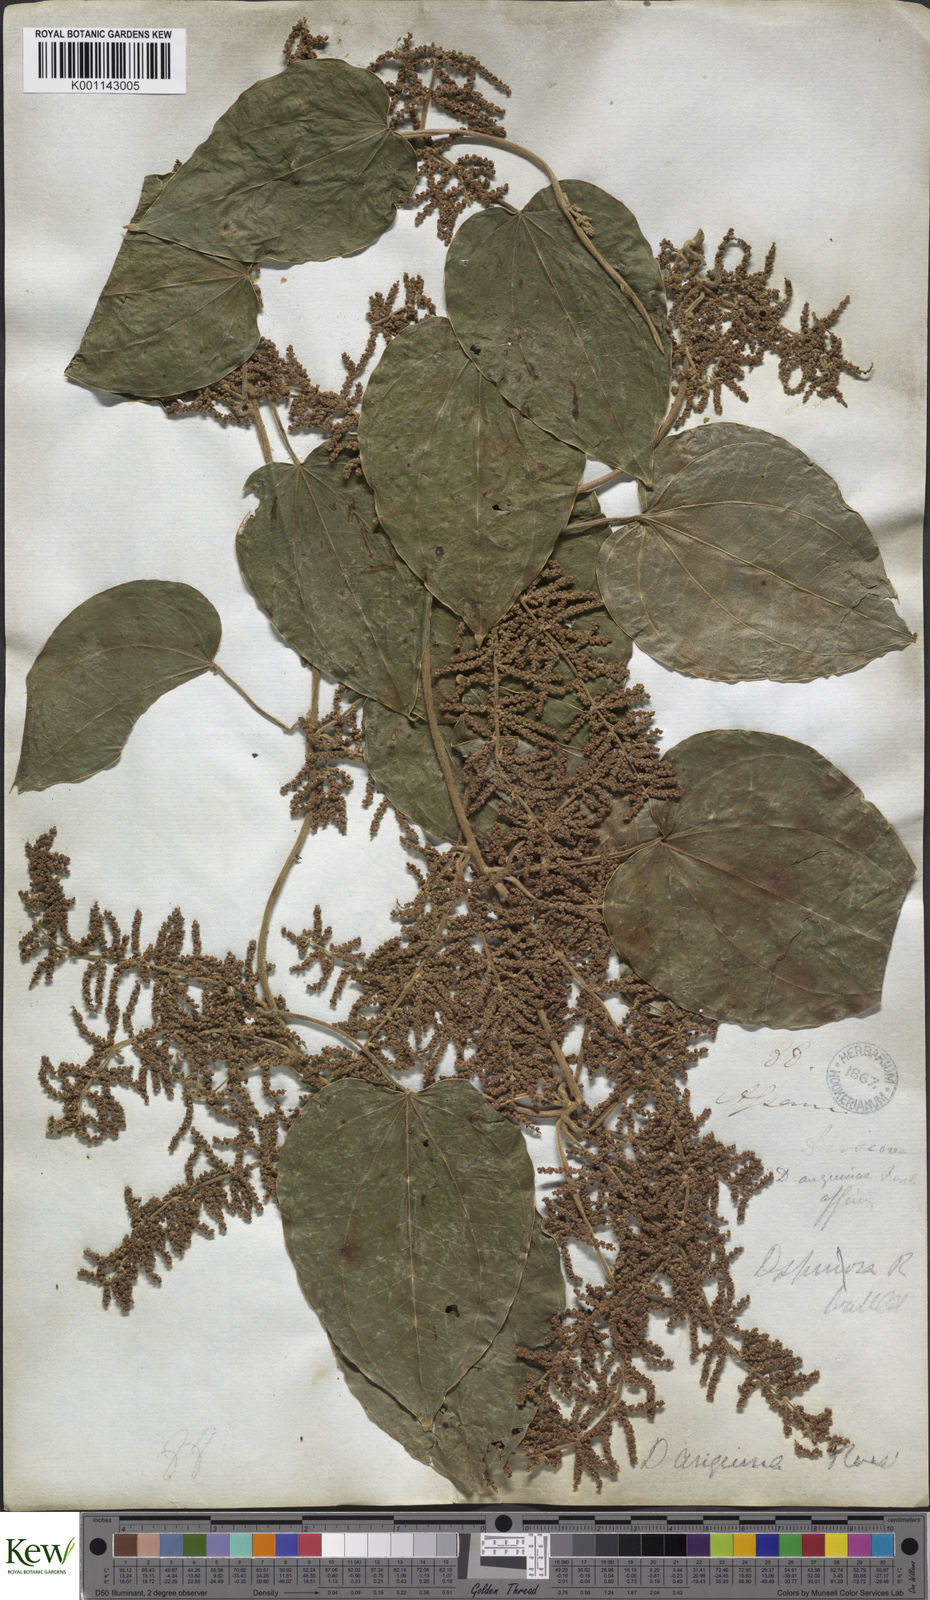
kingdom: Plantae
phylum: Tracheophyta
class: Liliopsida
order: Dioscoreales
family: Dioscoreaceae
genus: Dioscorea
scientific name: Dioscorea pubera
